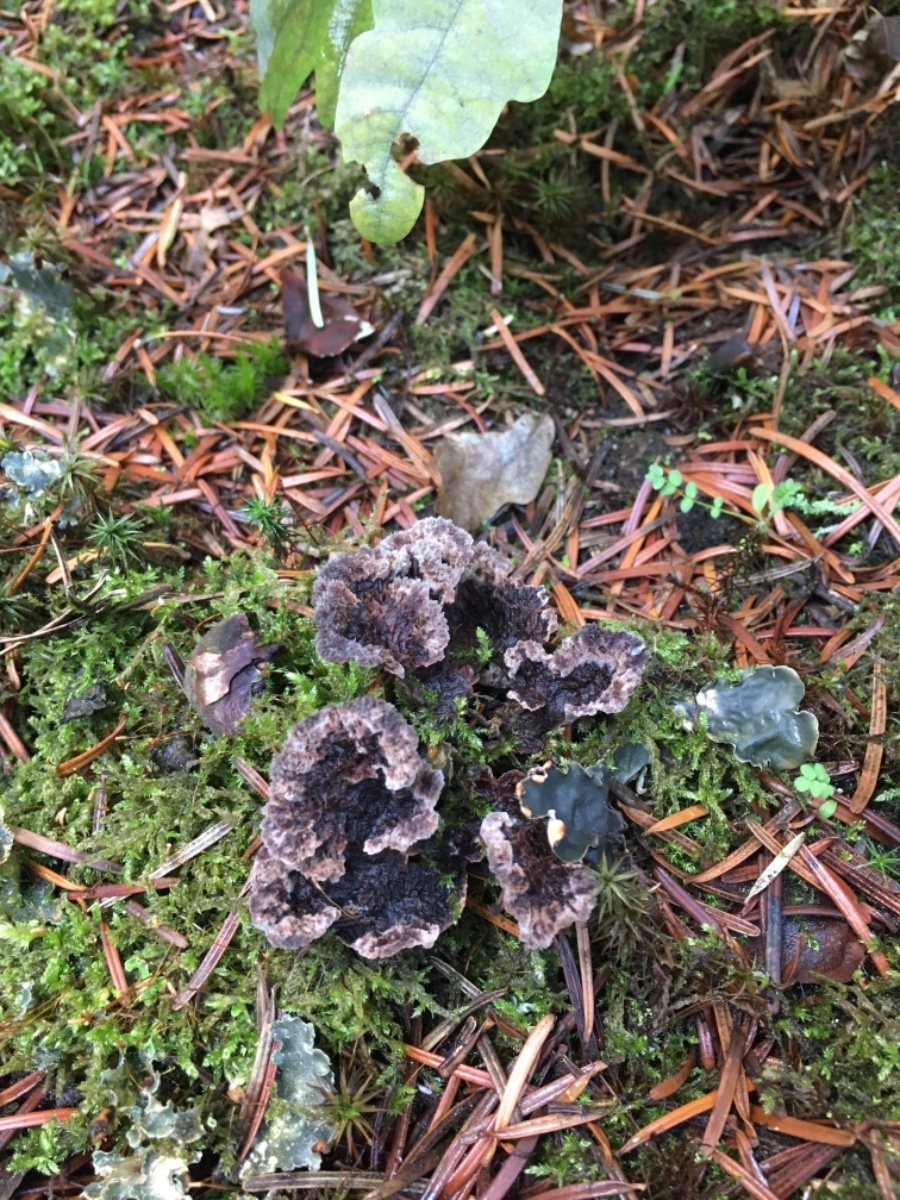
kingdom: Fungi
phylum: Basidiomycota
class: Agaricomycetes
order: Thelephorales
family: Thelephoraceae
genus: Thelephora
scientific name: Thelephora terrestris
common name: fliget frynsesvamp
